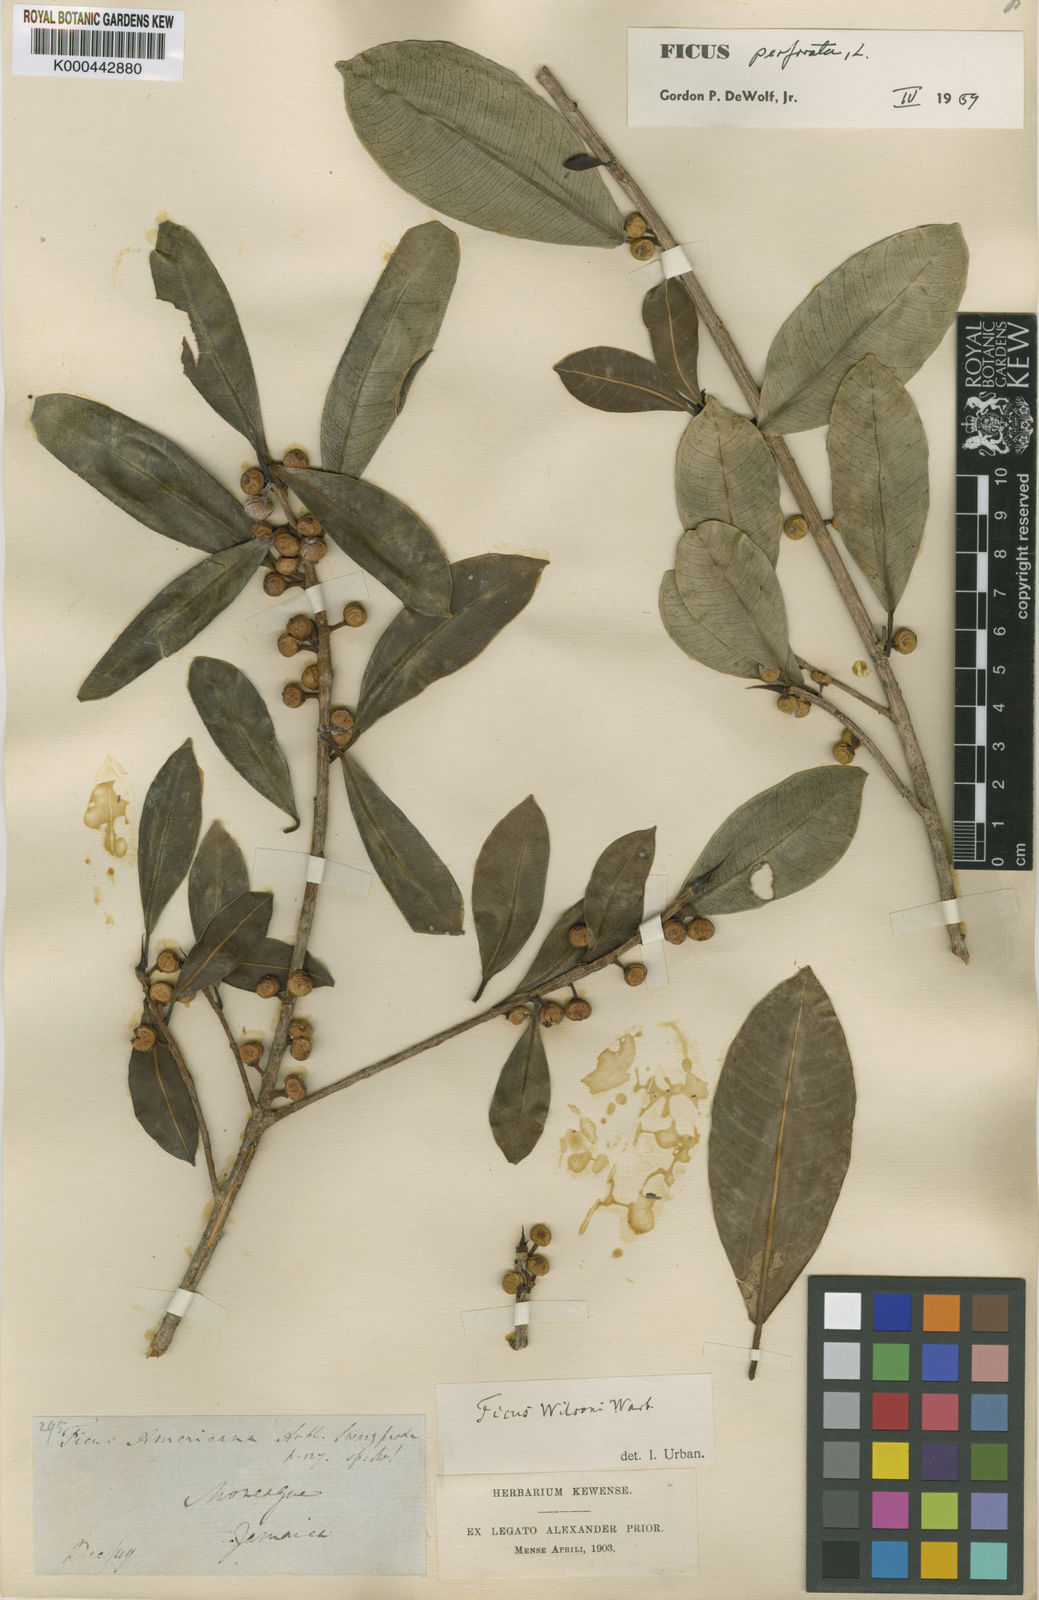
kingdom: Plantae
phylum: Tracheophyta
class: Magnoliopsida
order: Rosales
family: Moraceae
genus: Ficus
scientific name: Ficus americana
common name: Jamaican cherry fig
